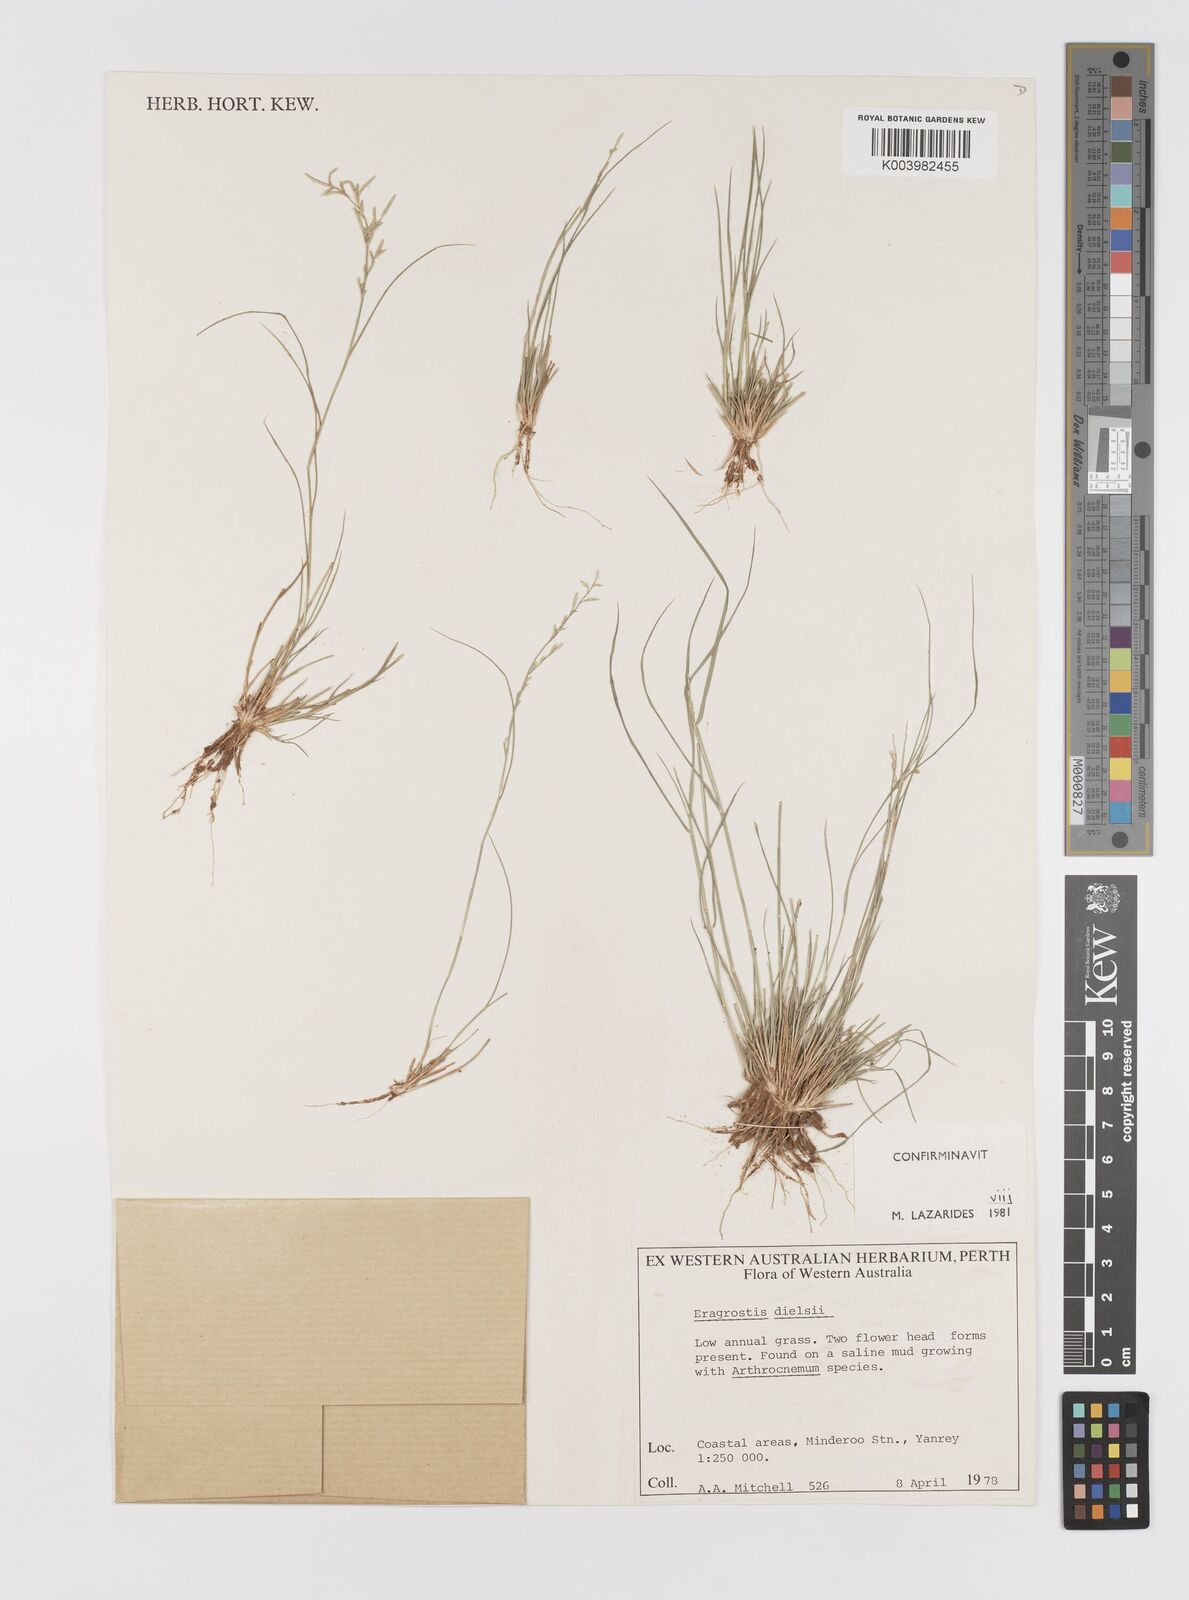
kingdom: Plantae
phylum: Tracheophyta
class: Liliopsida
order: Poales
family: Poaceae
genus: Eragrostis
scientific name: Eragrostis dielsii
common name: Lovegrass
